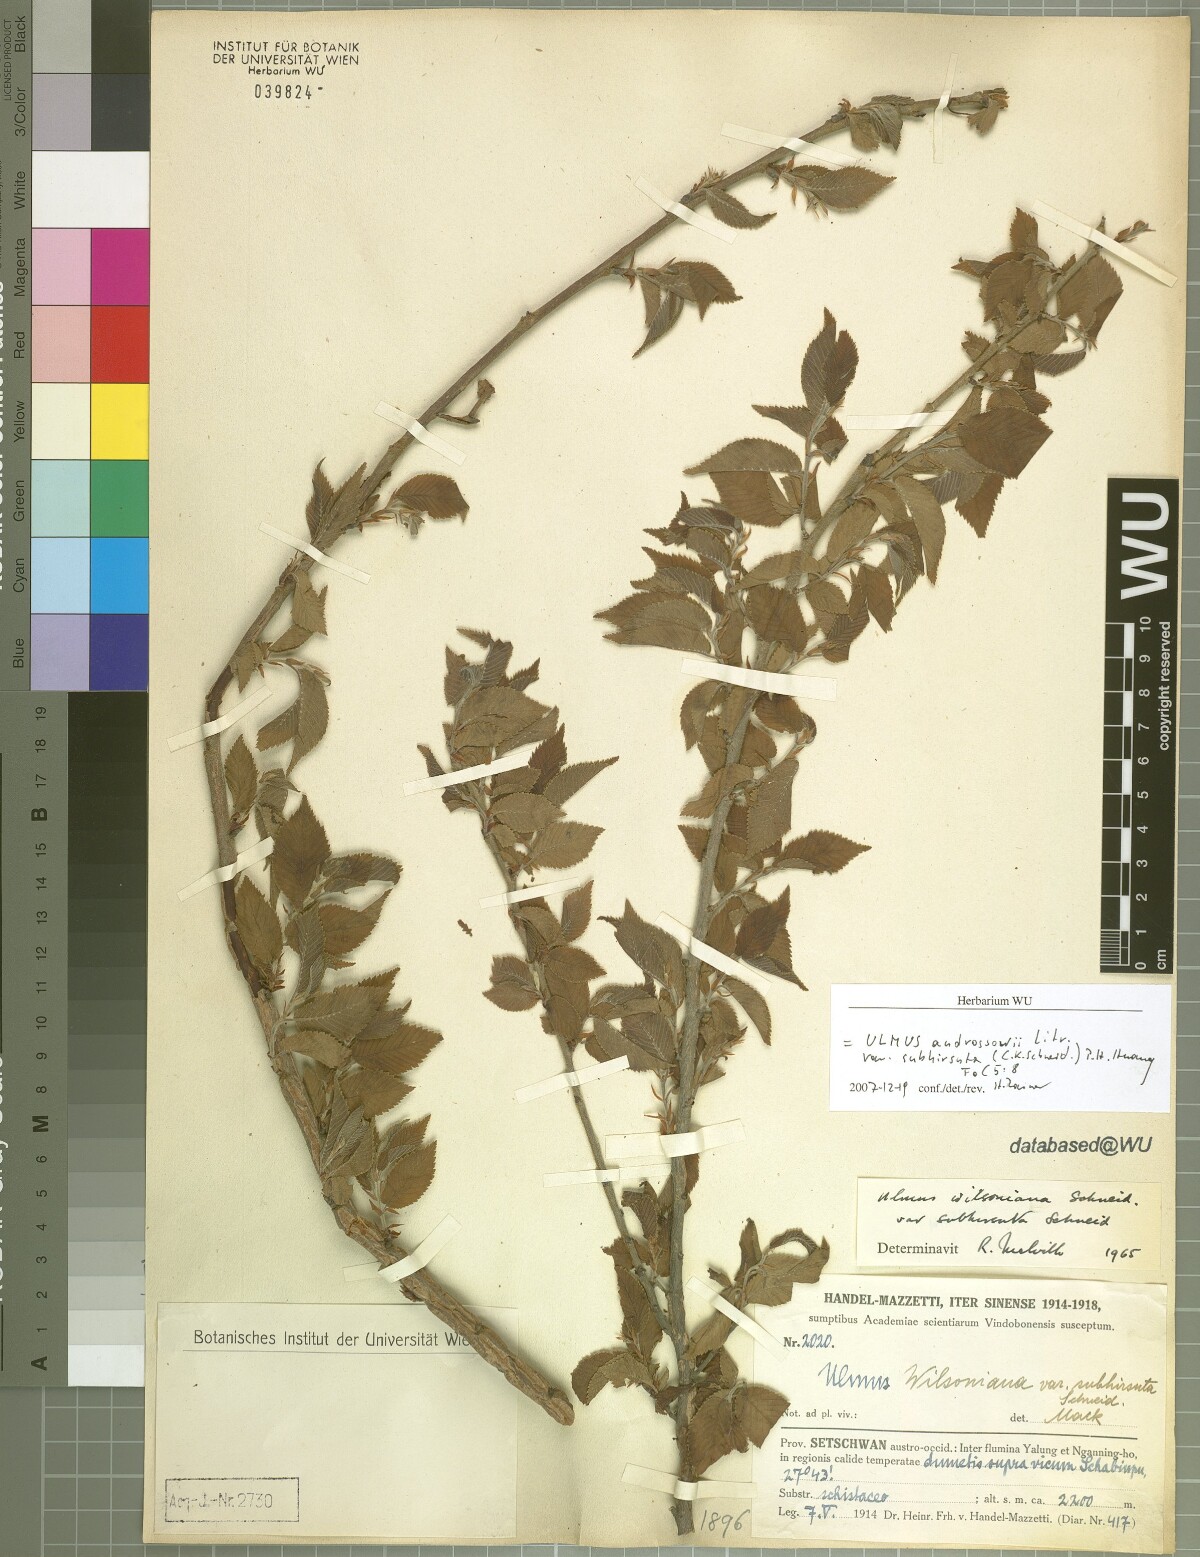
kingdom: Plantae
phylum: Tracheophyta
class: Magnoliopsida
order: Rosales
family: Ulmaceae
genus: Ulmus
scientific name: Ulmus chumlia
